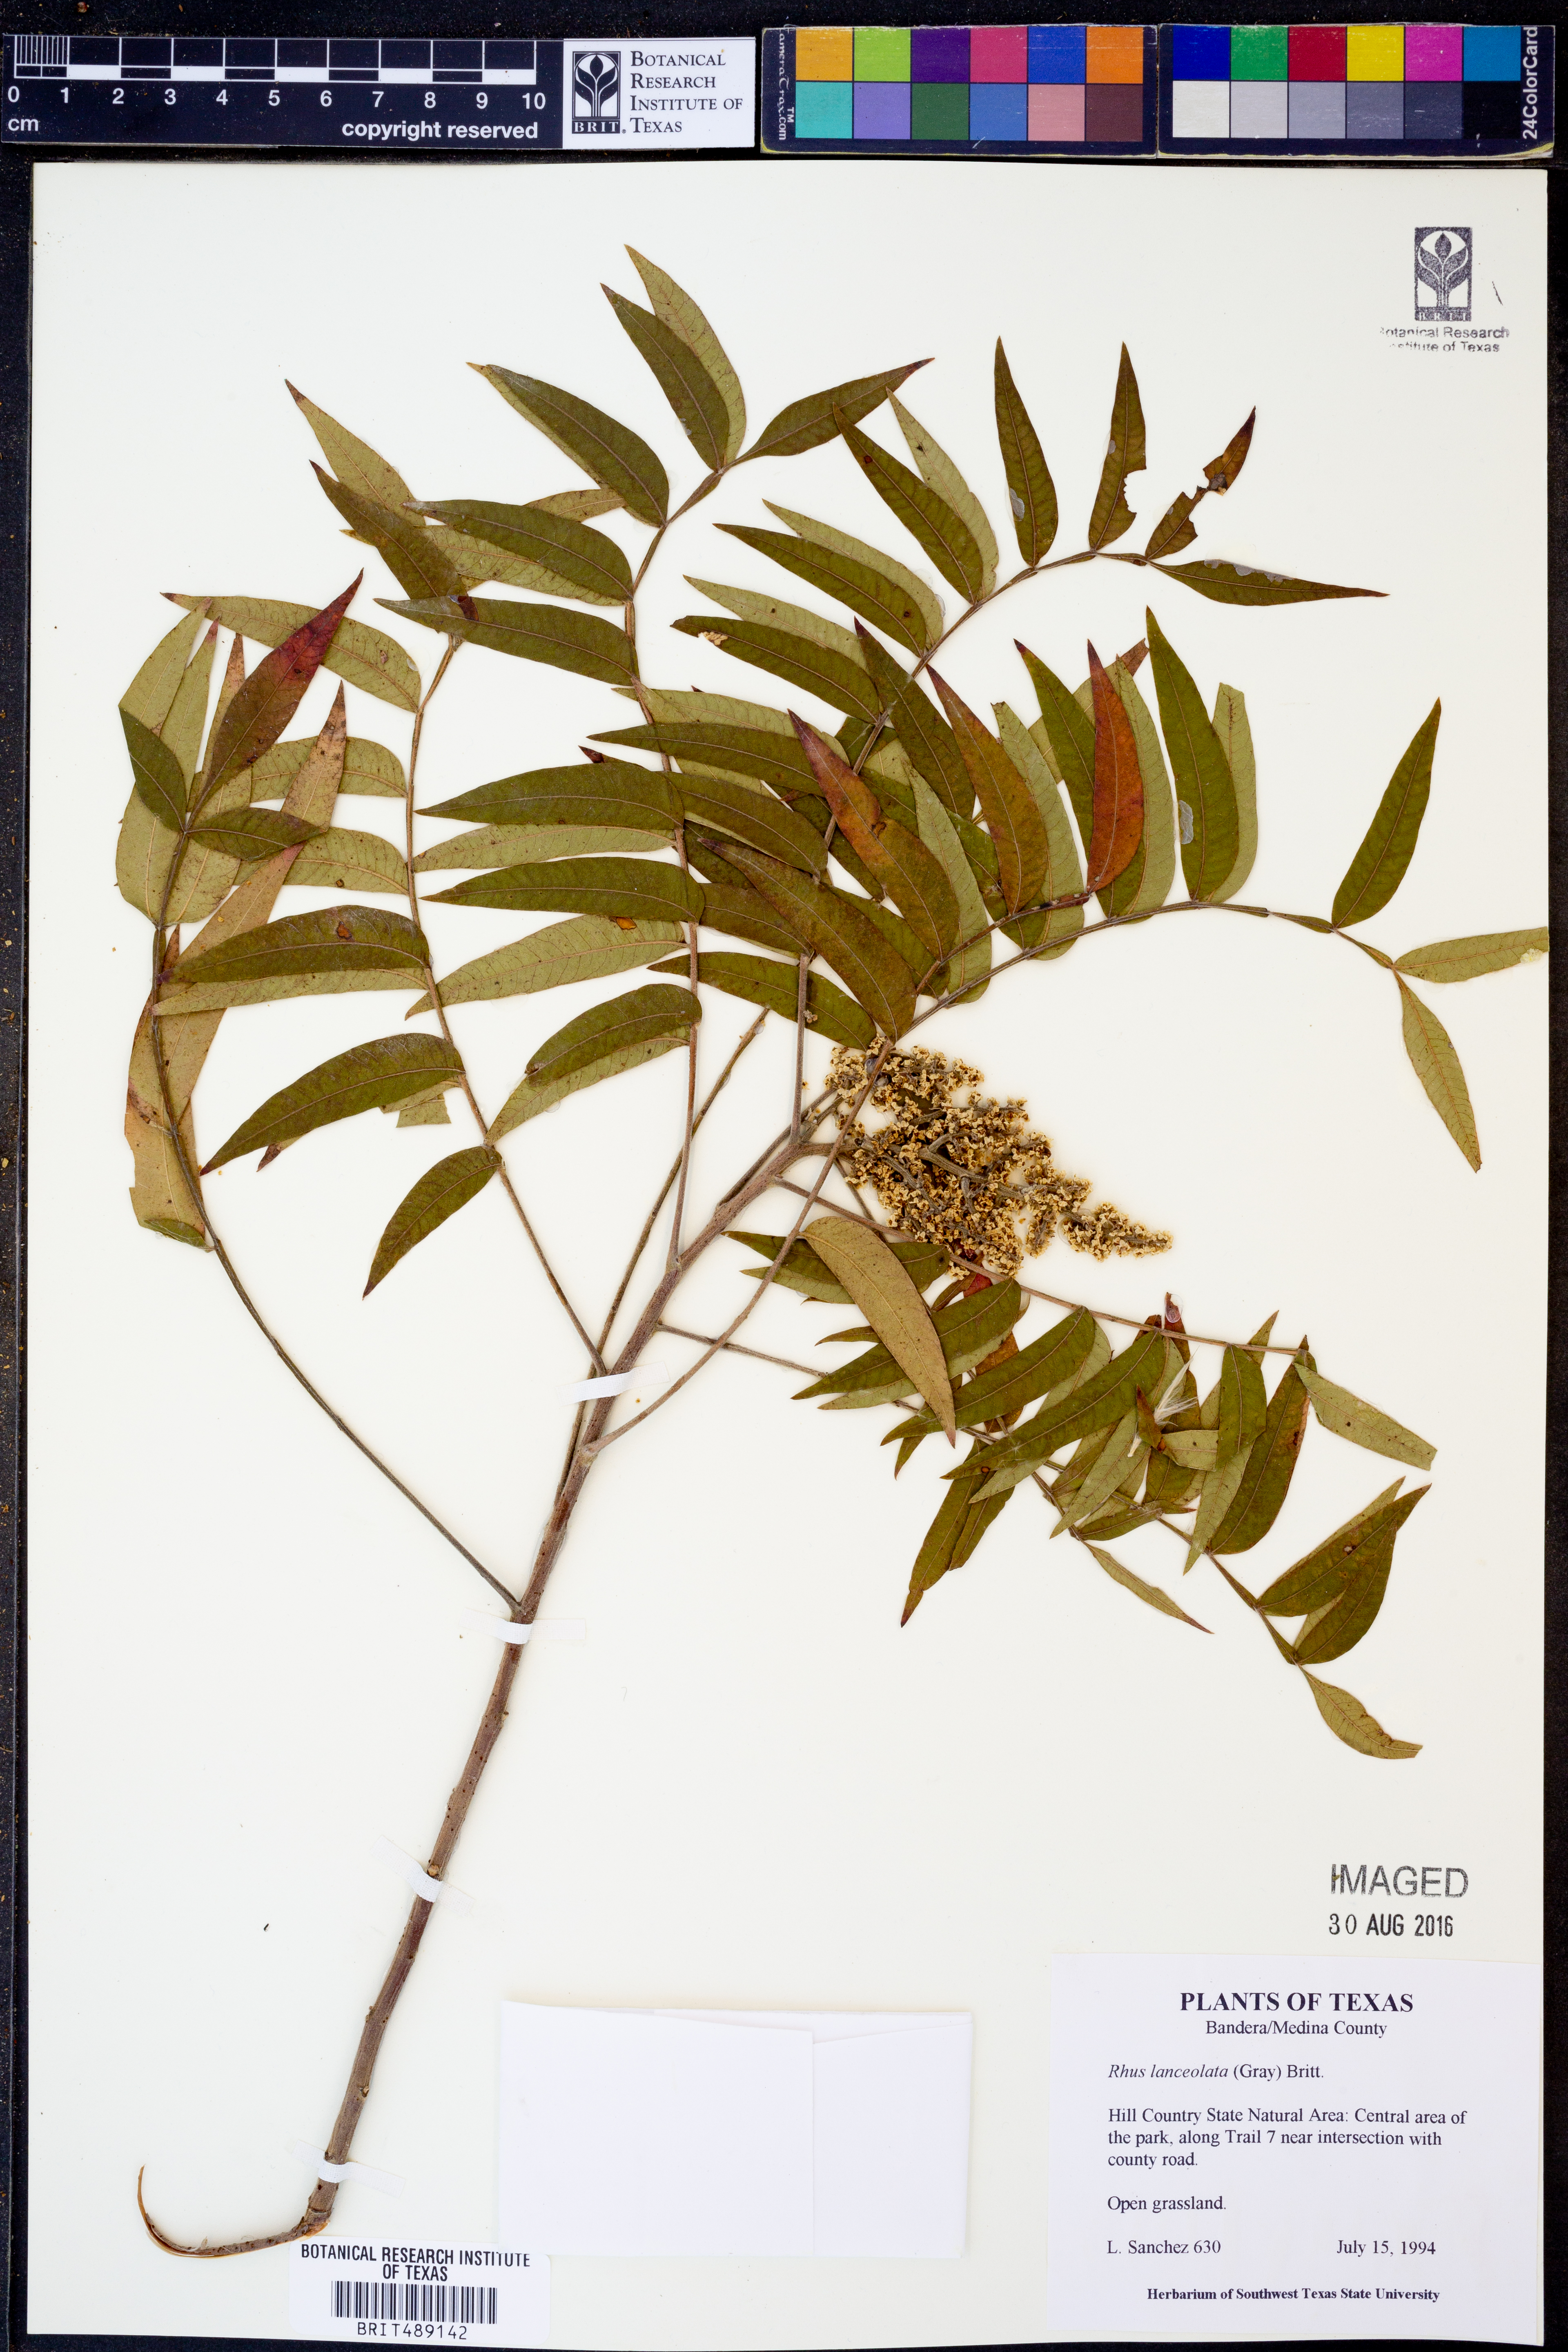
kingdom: Plantae
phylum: Tracheophyta
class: Magnoliopsida
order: Sapindales
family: Anacardiaceae
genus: Rhus
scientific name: Rhus lanceolata
